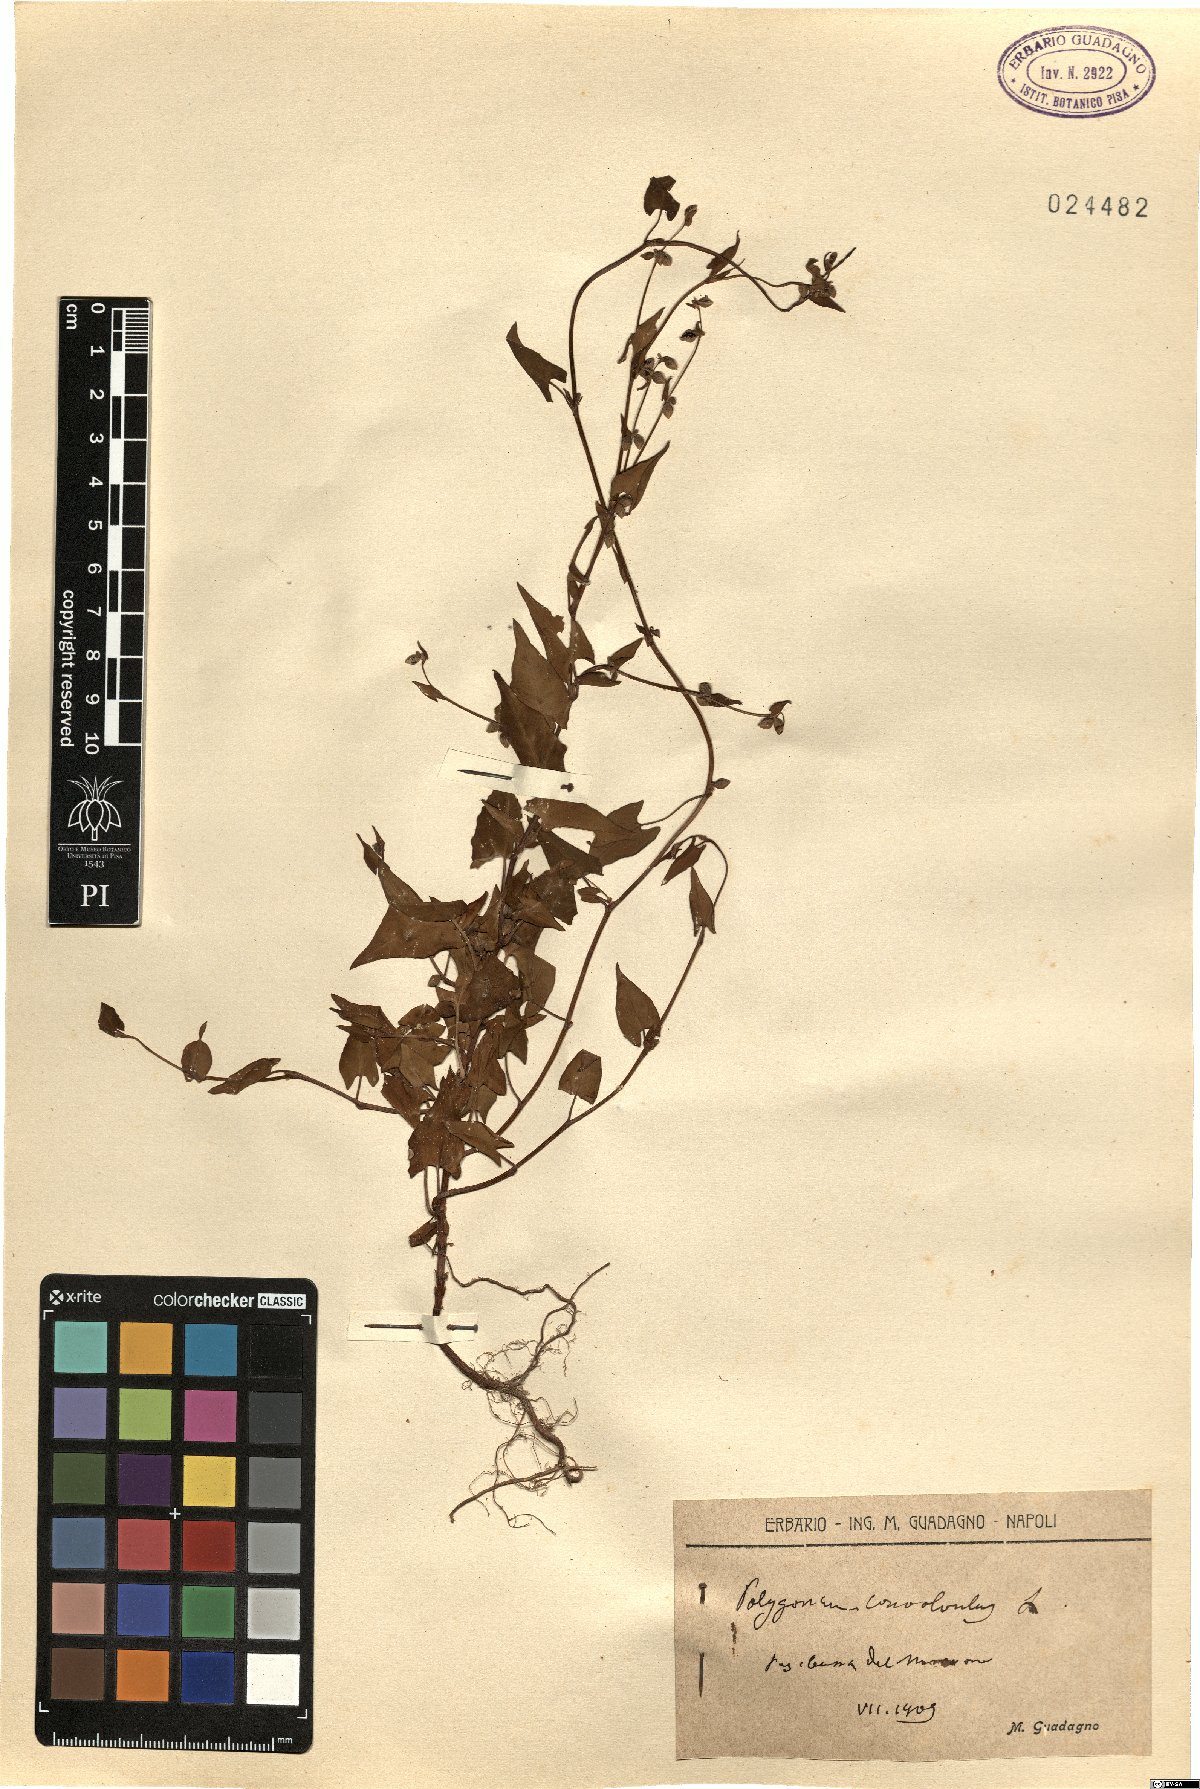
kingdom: Plantae
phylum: Tracheophyta
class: Magnoliopsida
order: Caryophyllales
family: Polygonaceae
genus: Fallopia
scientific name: Fallopia convolvulus
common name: Black bindweed
